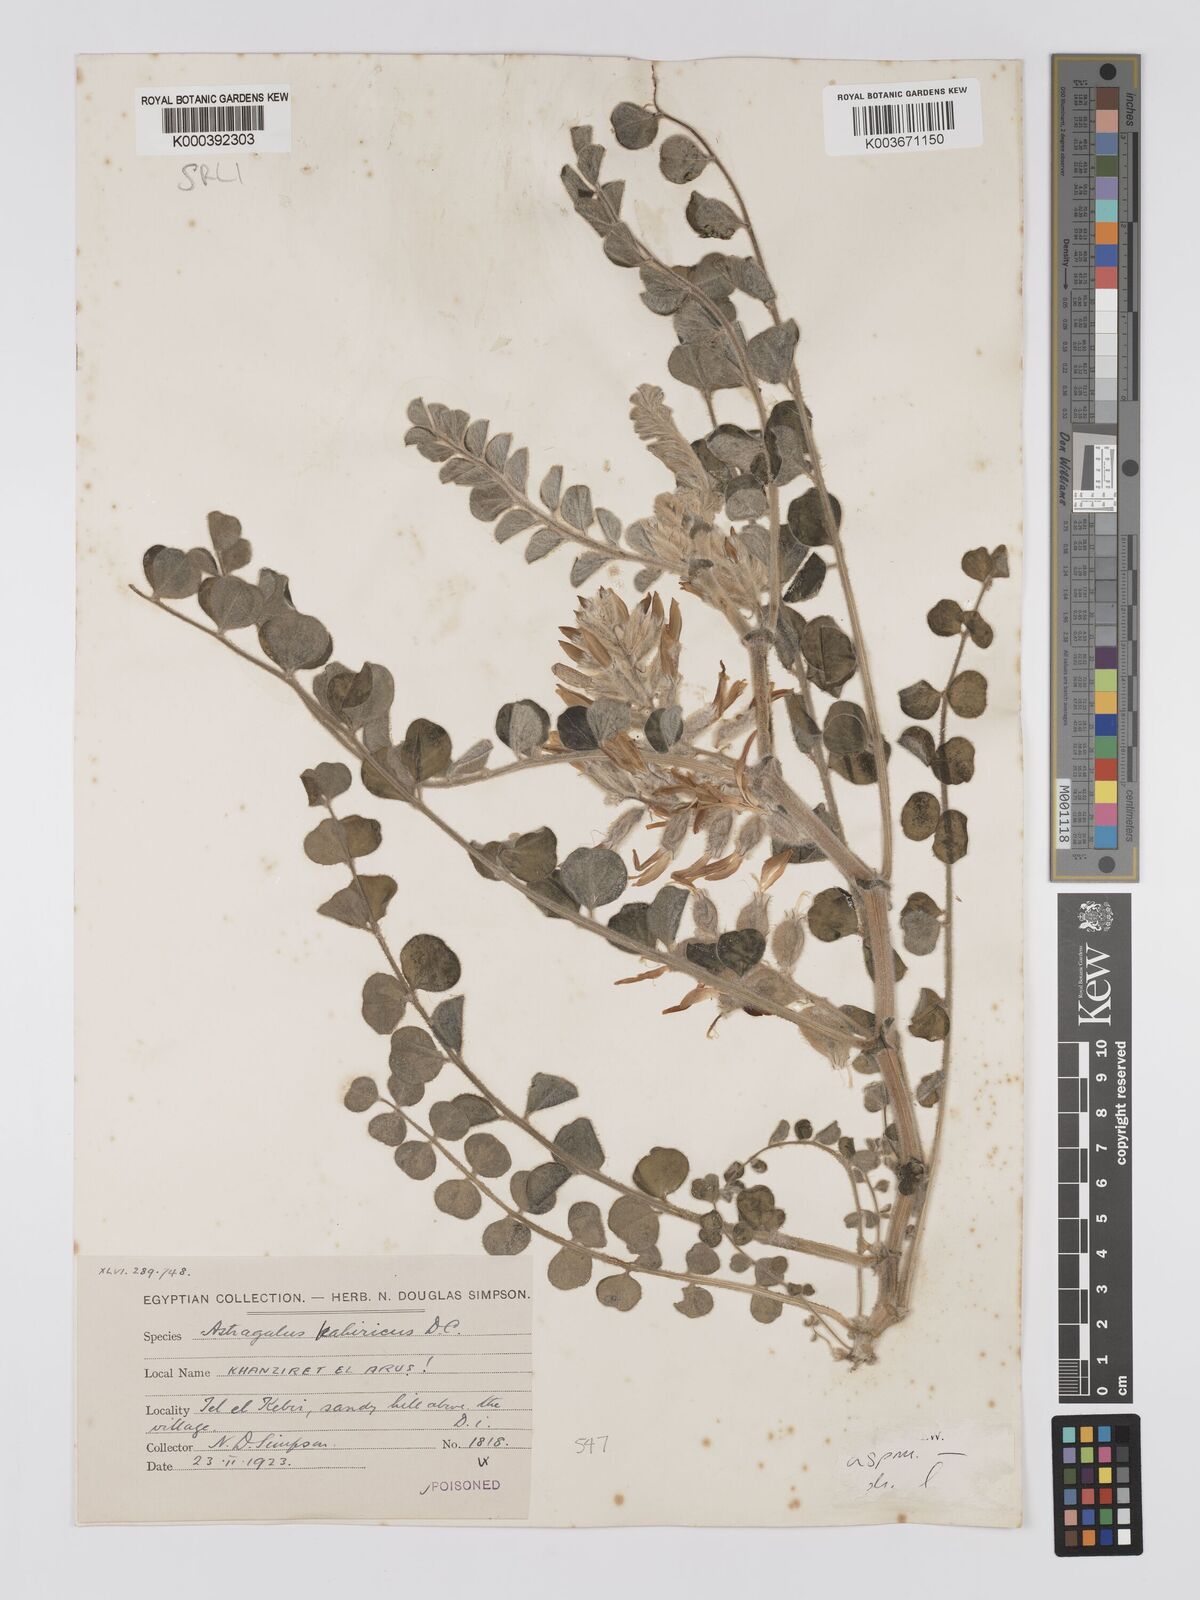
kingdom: Plantae
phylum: Tracheophyta
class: Magnoliopsida
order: Fabales
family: Fabaceae
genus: Astragalus
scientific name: Astragalus kahiricus
